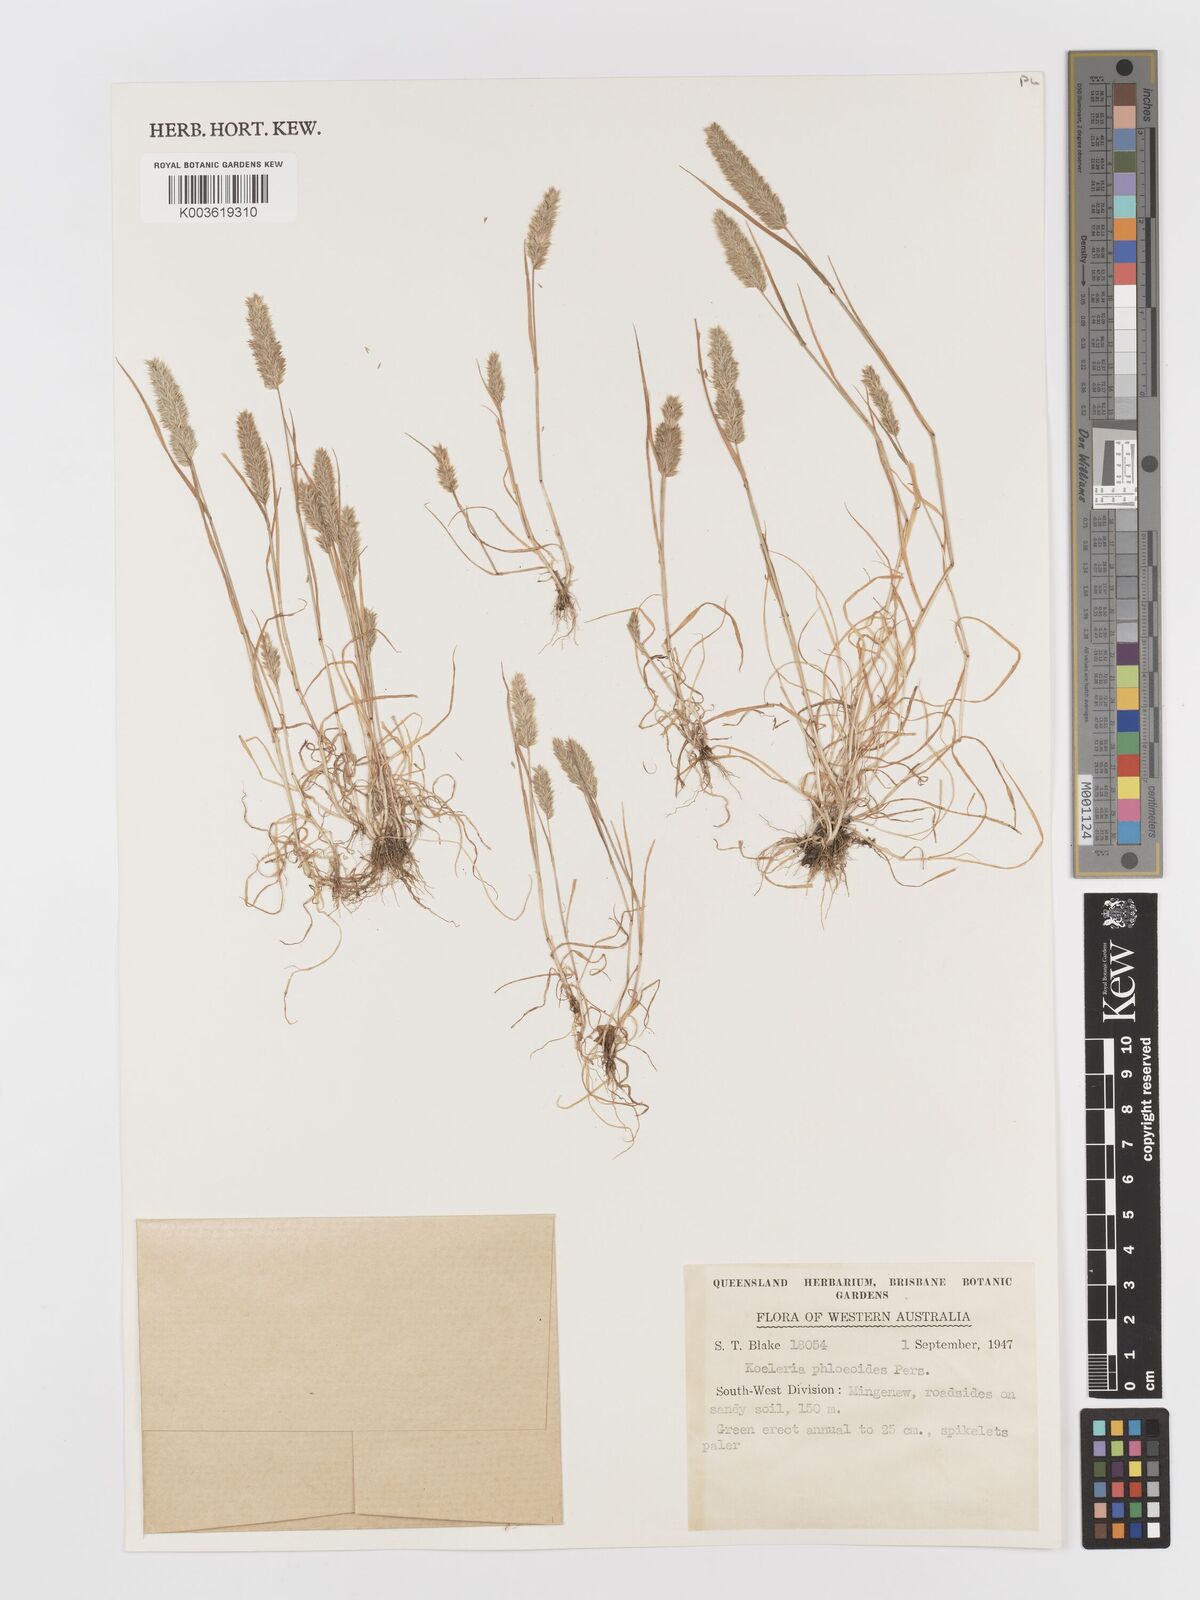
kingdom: Plantae
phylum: Tracheophyta
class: Liliopsida
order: Poales
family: Poaceae
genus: Rostraria
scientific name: Rostraria cristata
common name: Mediterranean hair-grass
